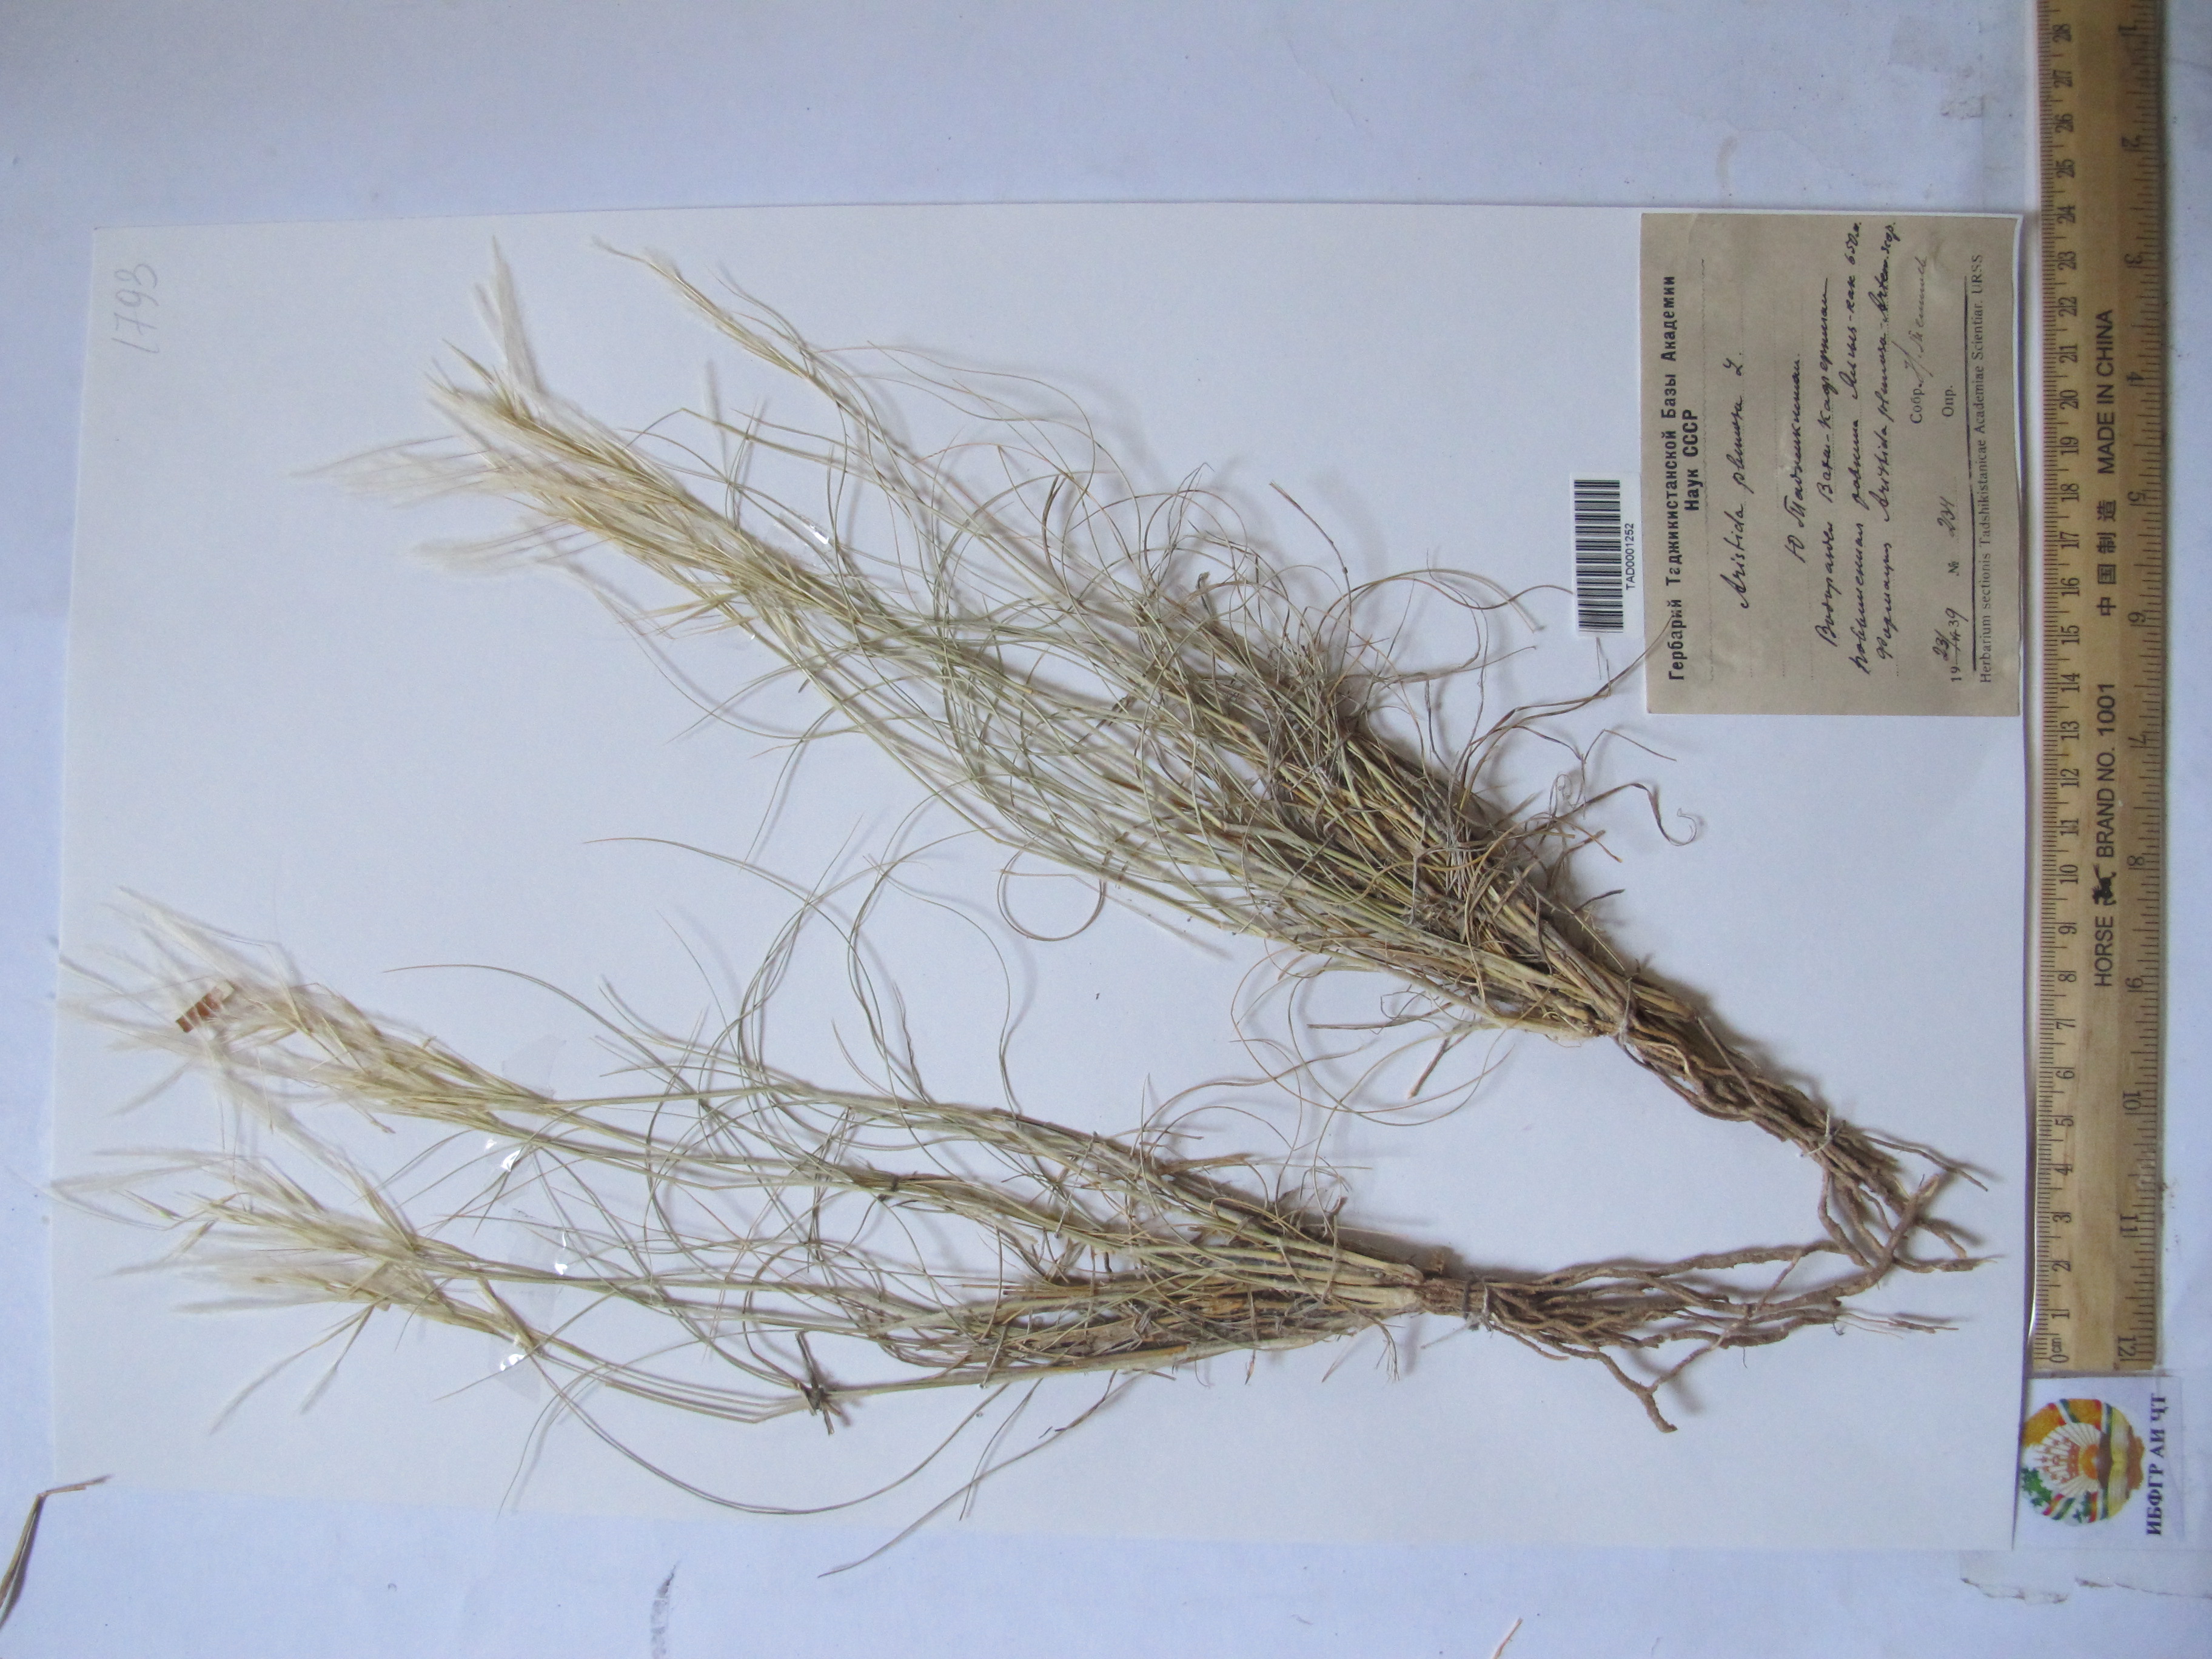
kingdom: Plantae
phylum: Tracheophyta
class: Liliopsida
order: Poales
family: Poaceae
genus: Stipagrostis
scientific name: Stipagrostis plumosa
